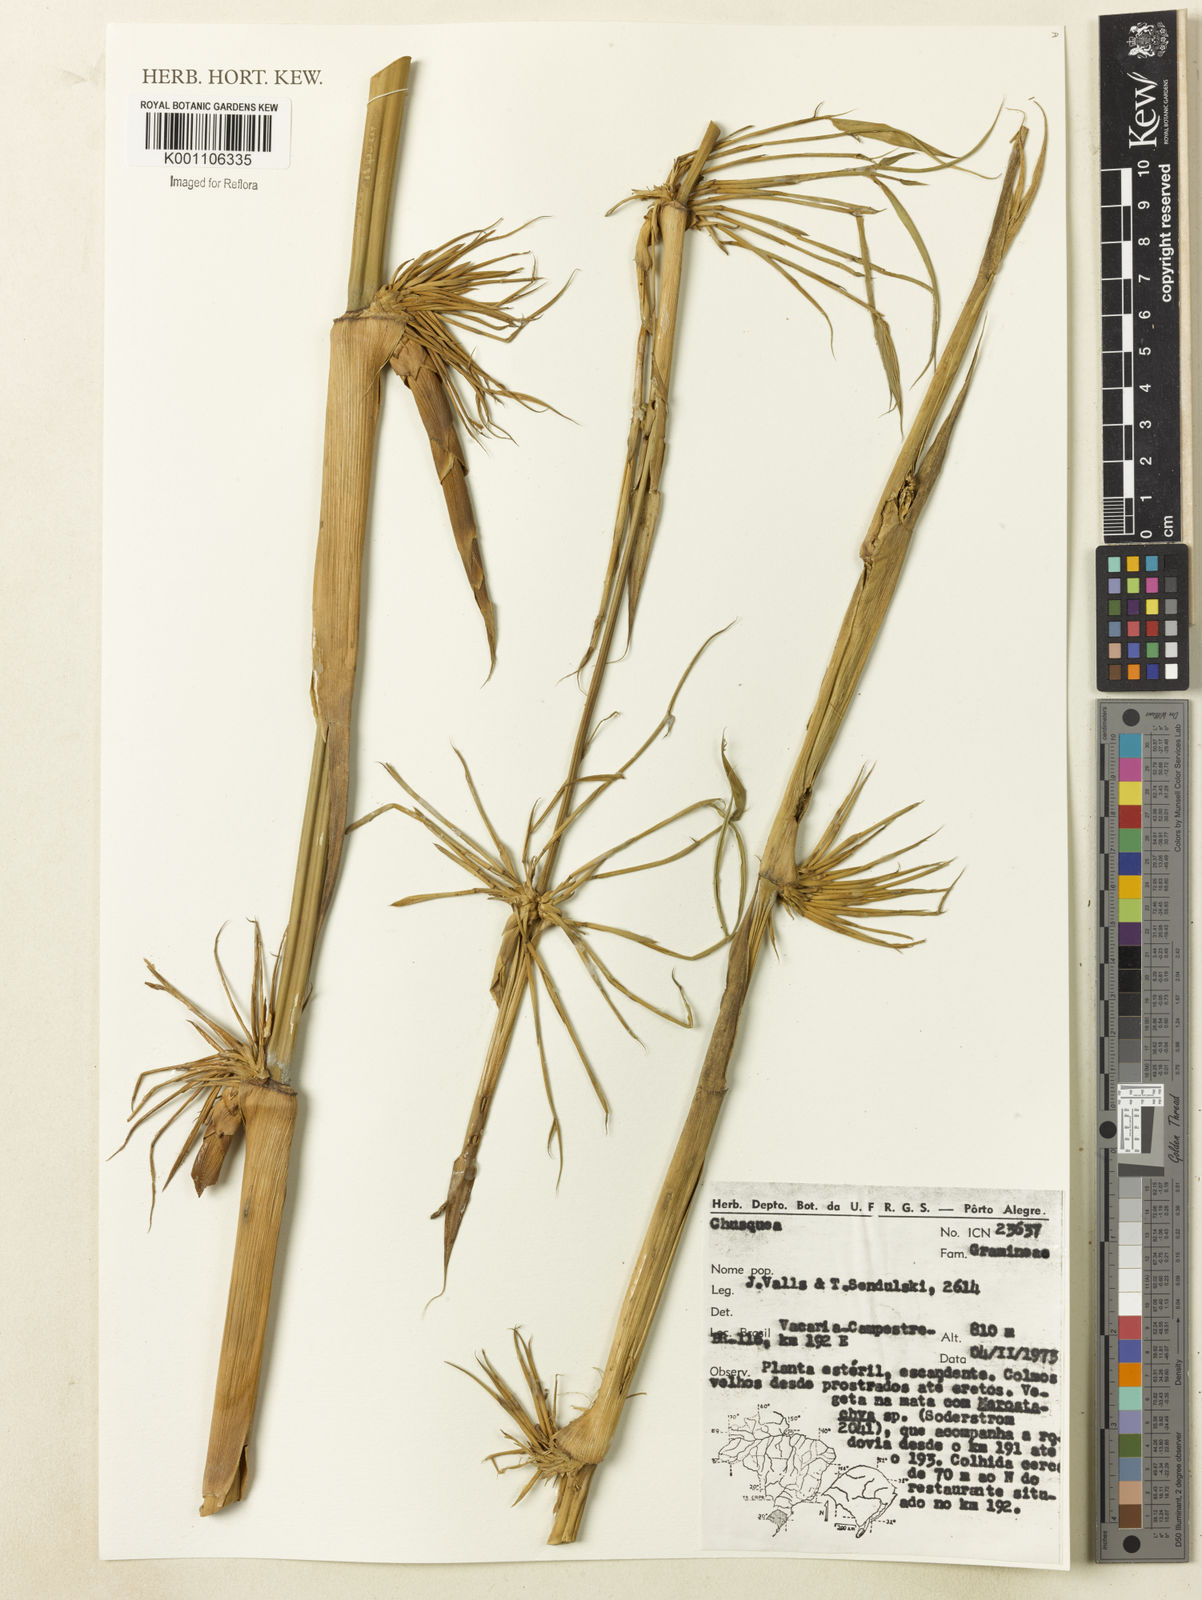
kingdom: Plantae
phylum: Tracheophyta
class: Liliopsida
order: Poales
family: Poaceae
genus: Chusquea
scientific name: Chusquea
